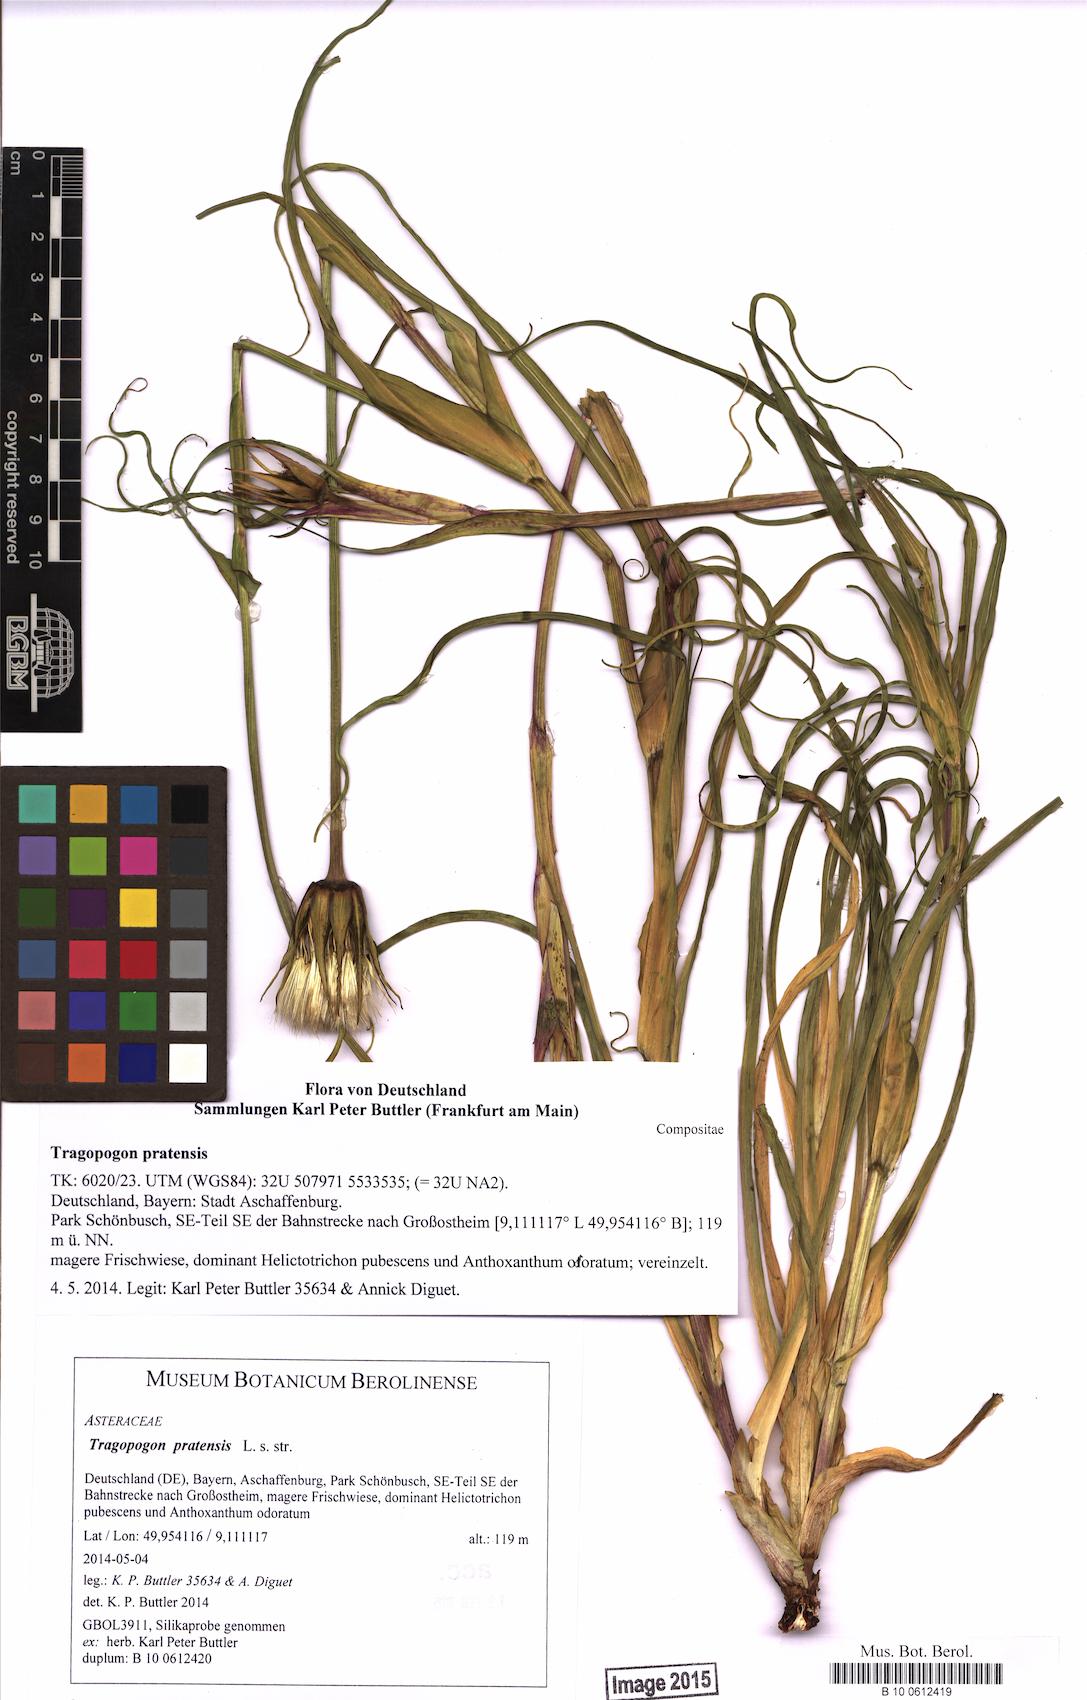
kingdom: Plantae
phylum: Tracheophyta
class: Magnoliopsida
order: Asterales
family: Asteraceae
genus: Tragopogon
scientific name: Tragopogon pratensis
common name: Goat's-beard
